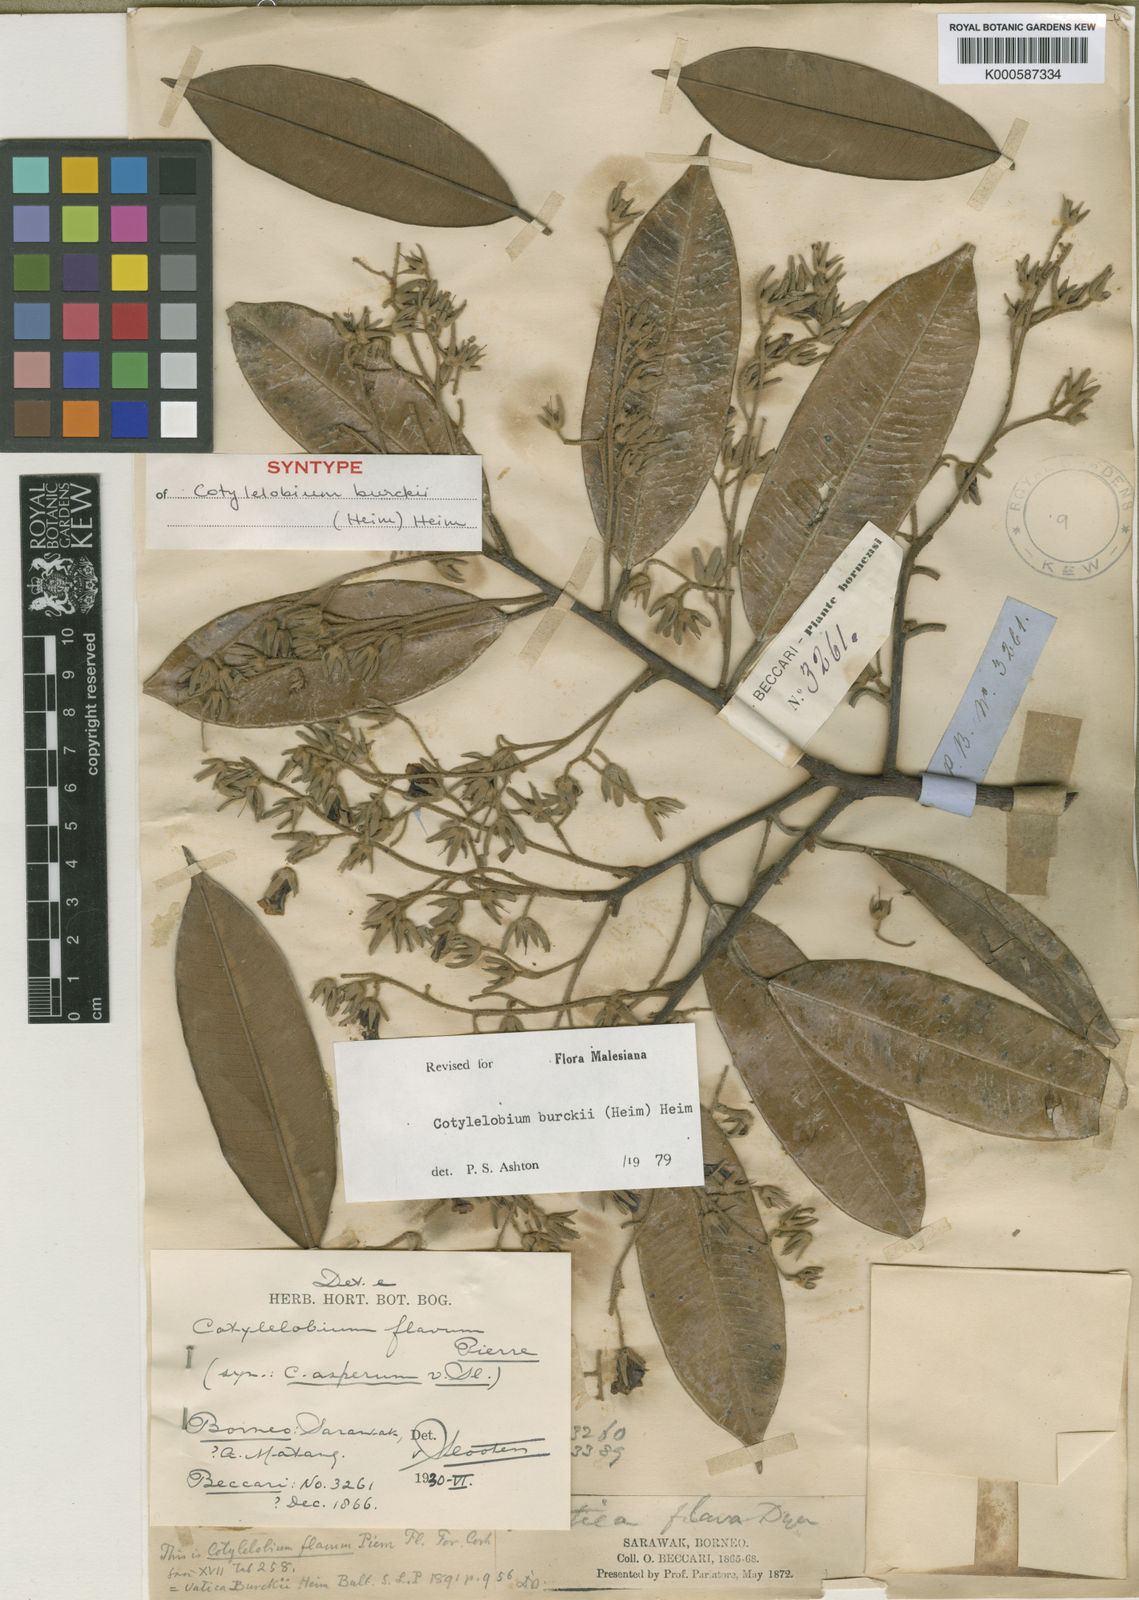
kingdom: Plantae
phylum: Tracheophyta
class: Magnoliopsida
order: Malvales
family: Dipterocarpaceae
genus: Cotylelobium
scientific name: Cotylelobium burckii
